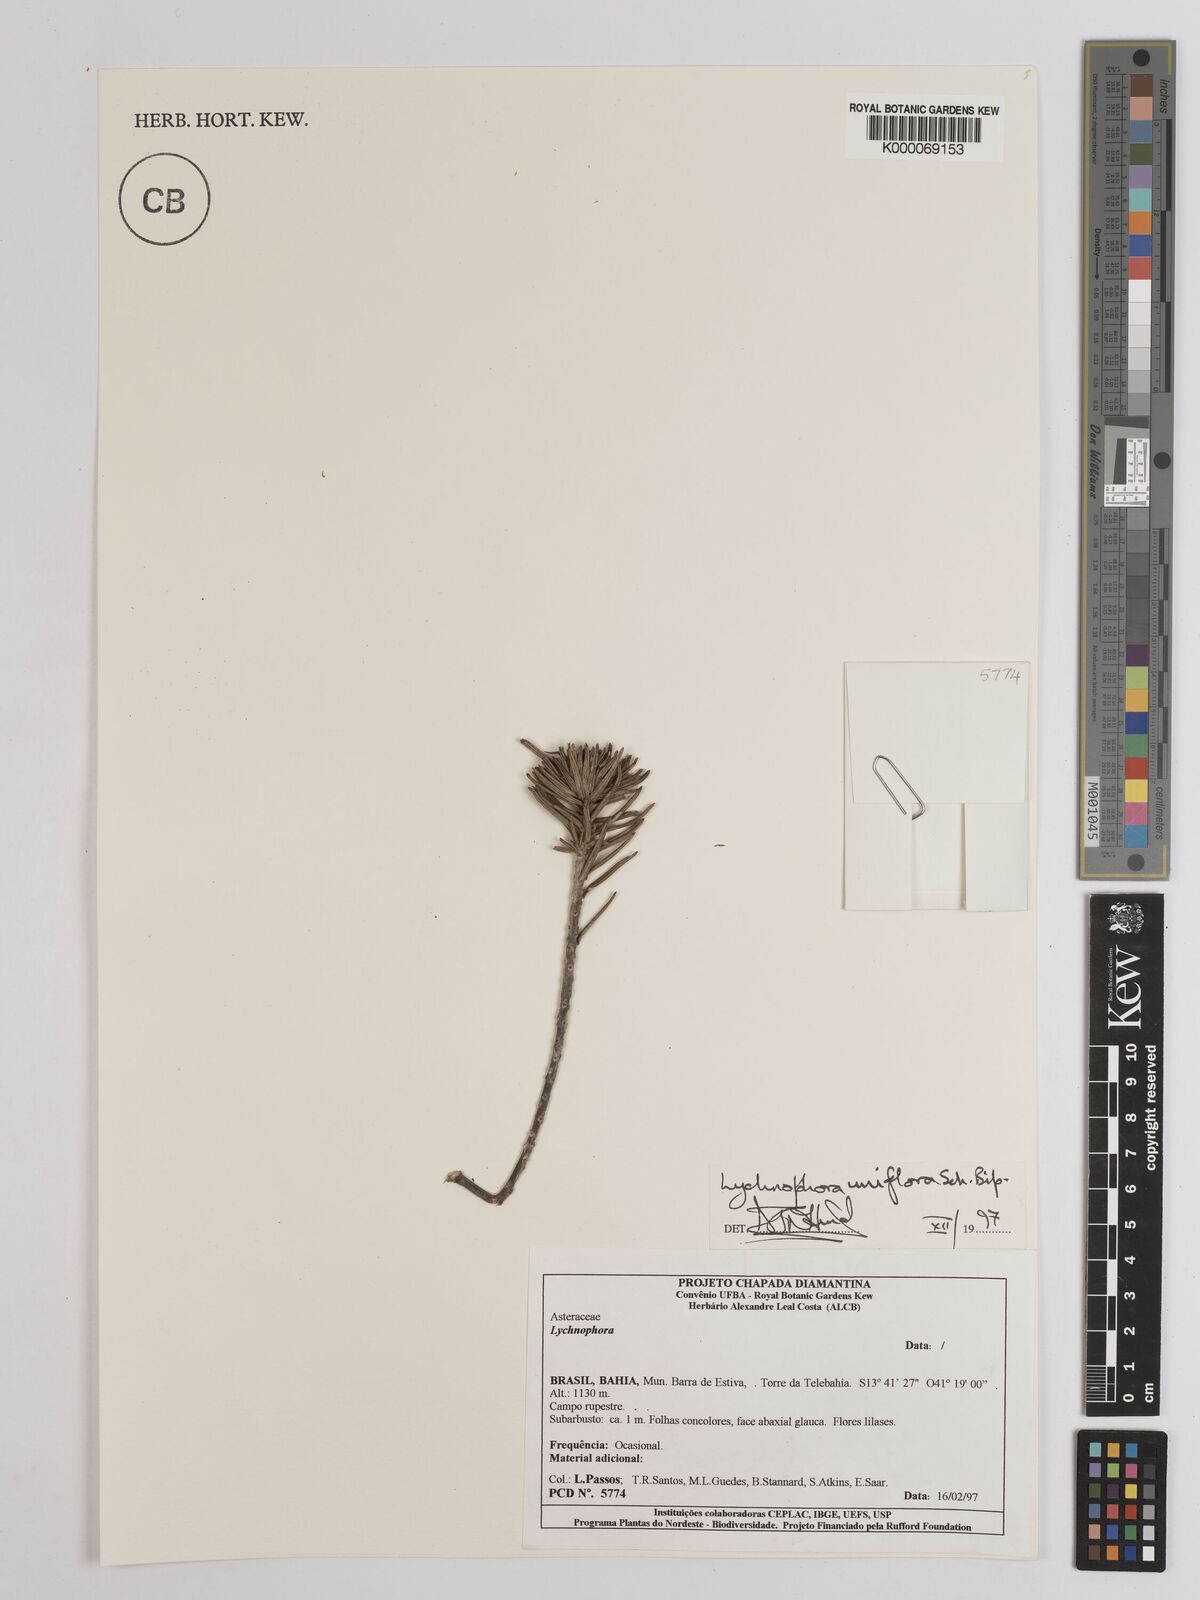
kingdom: Plantae
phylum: Tracheophyta
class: Magnoliopsida
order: Asterales
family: Asteraceae
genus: Lychnophora
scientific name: Lychnophora uniflora
